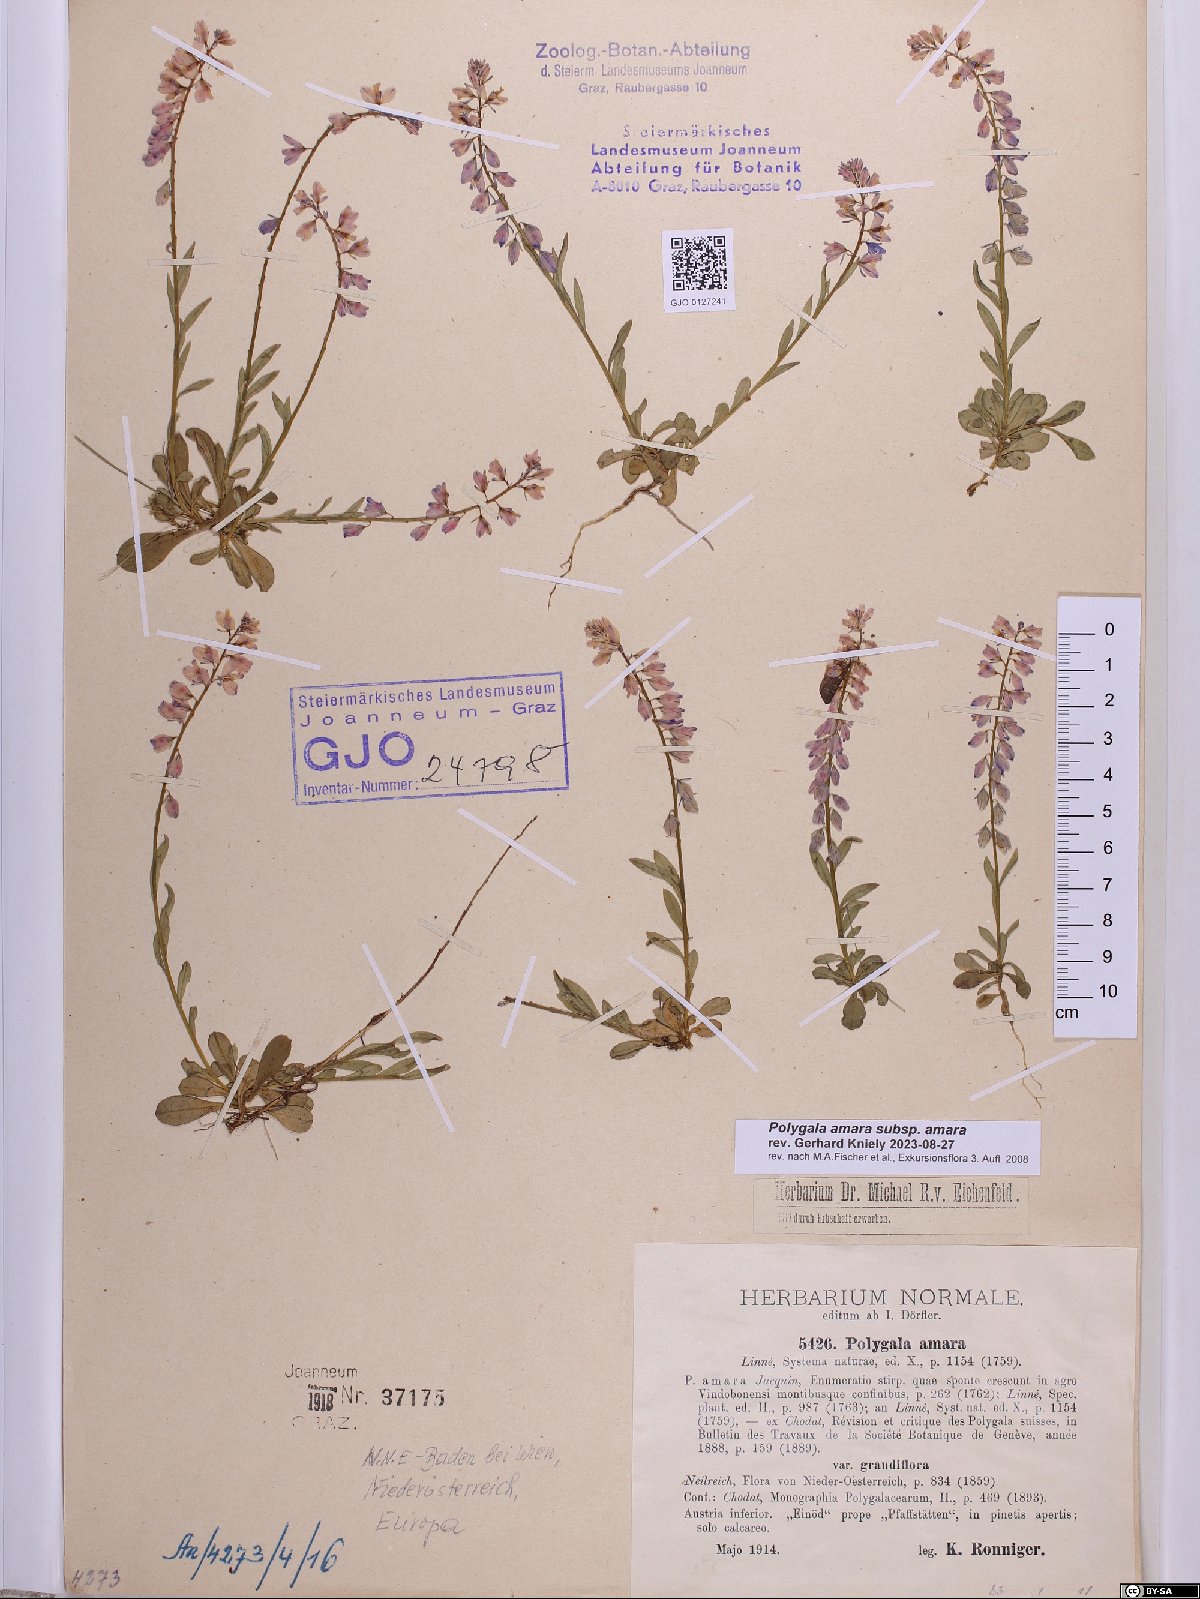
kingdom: Plantae
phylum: Tracheophyta
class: Magnoliopsida
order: Fabales
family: Polygalaceae
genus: Polygala
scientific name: Polygala amara
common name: Milkwort
